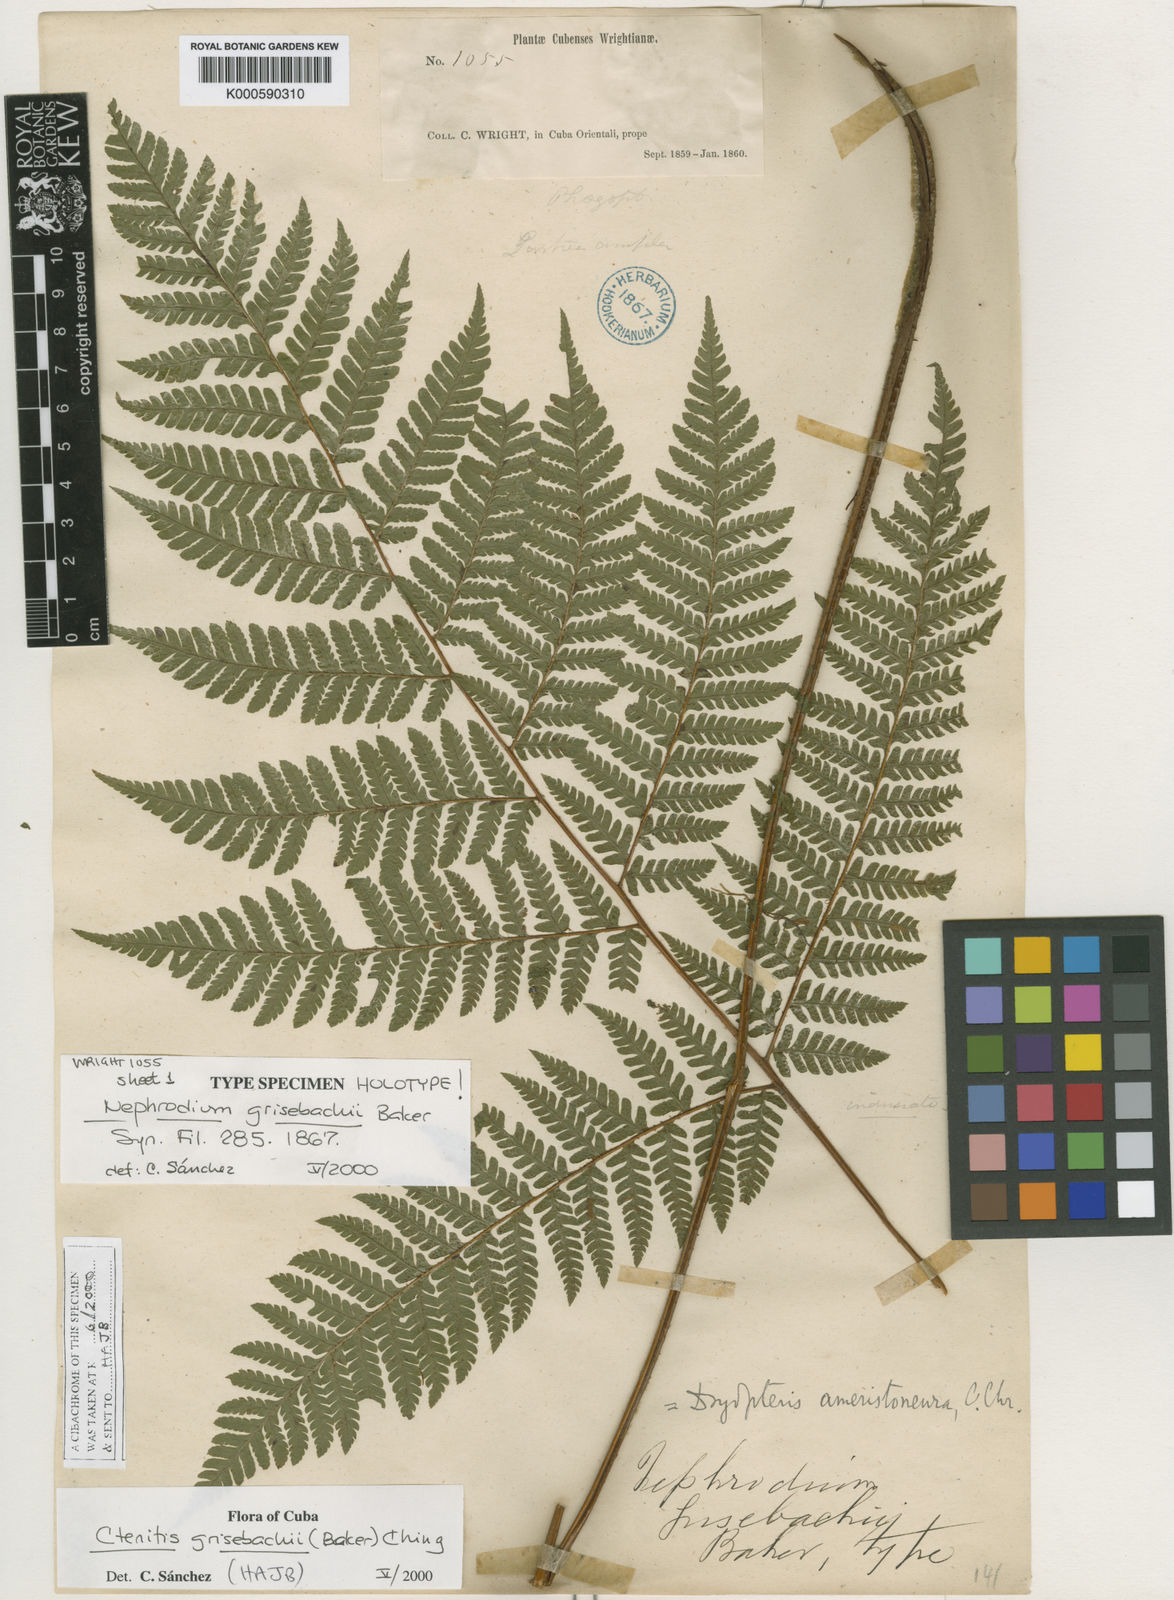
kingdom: Plantae
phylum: Tracheophyta
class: Polypodiopsida
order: Polypodiales
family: Dryopteridaceae
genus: Ctenitis
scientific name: Ctenitis grisebachii
